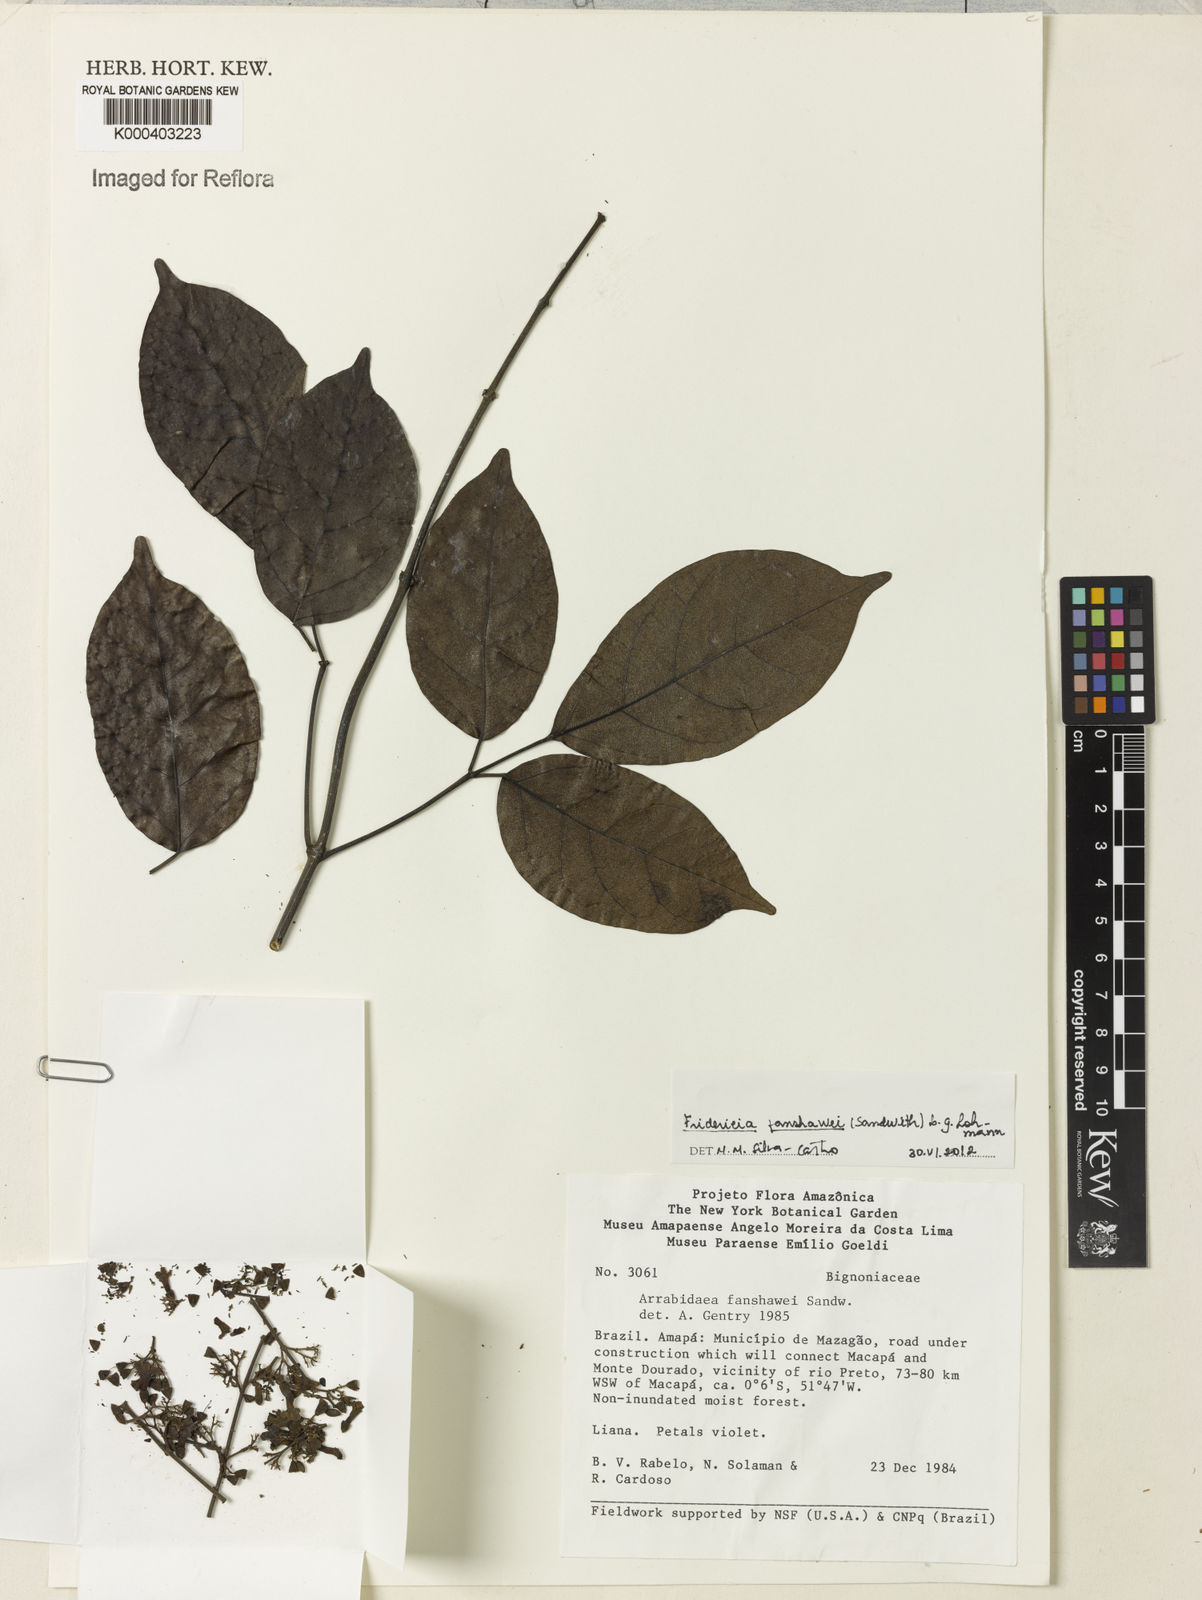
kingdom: Plantae
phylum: Tracheophyta
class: Magnoliopsida
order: Lamiales
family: Bignoniaceae
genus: Fridericia
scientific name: Fridericia fanshawei
